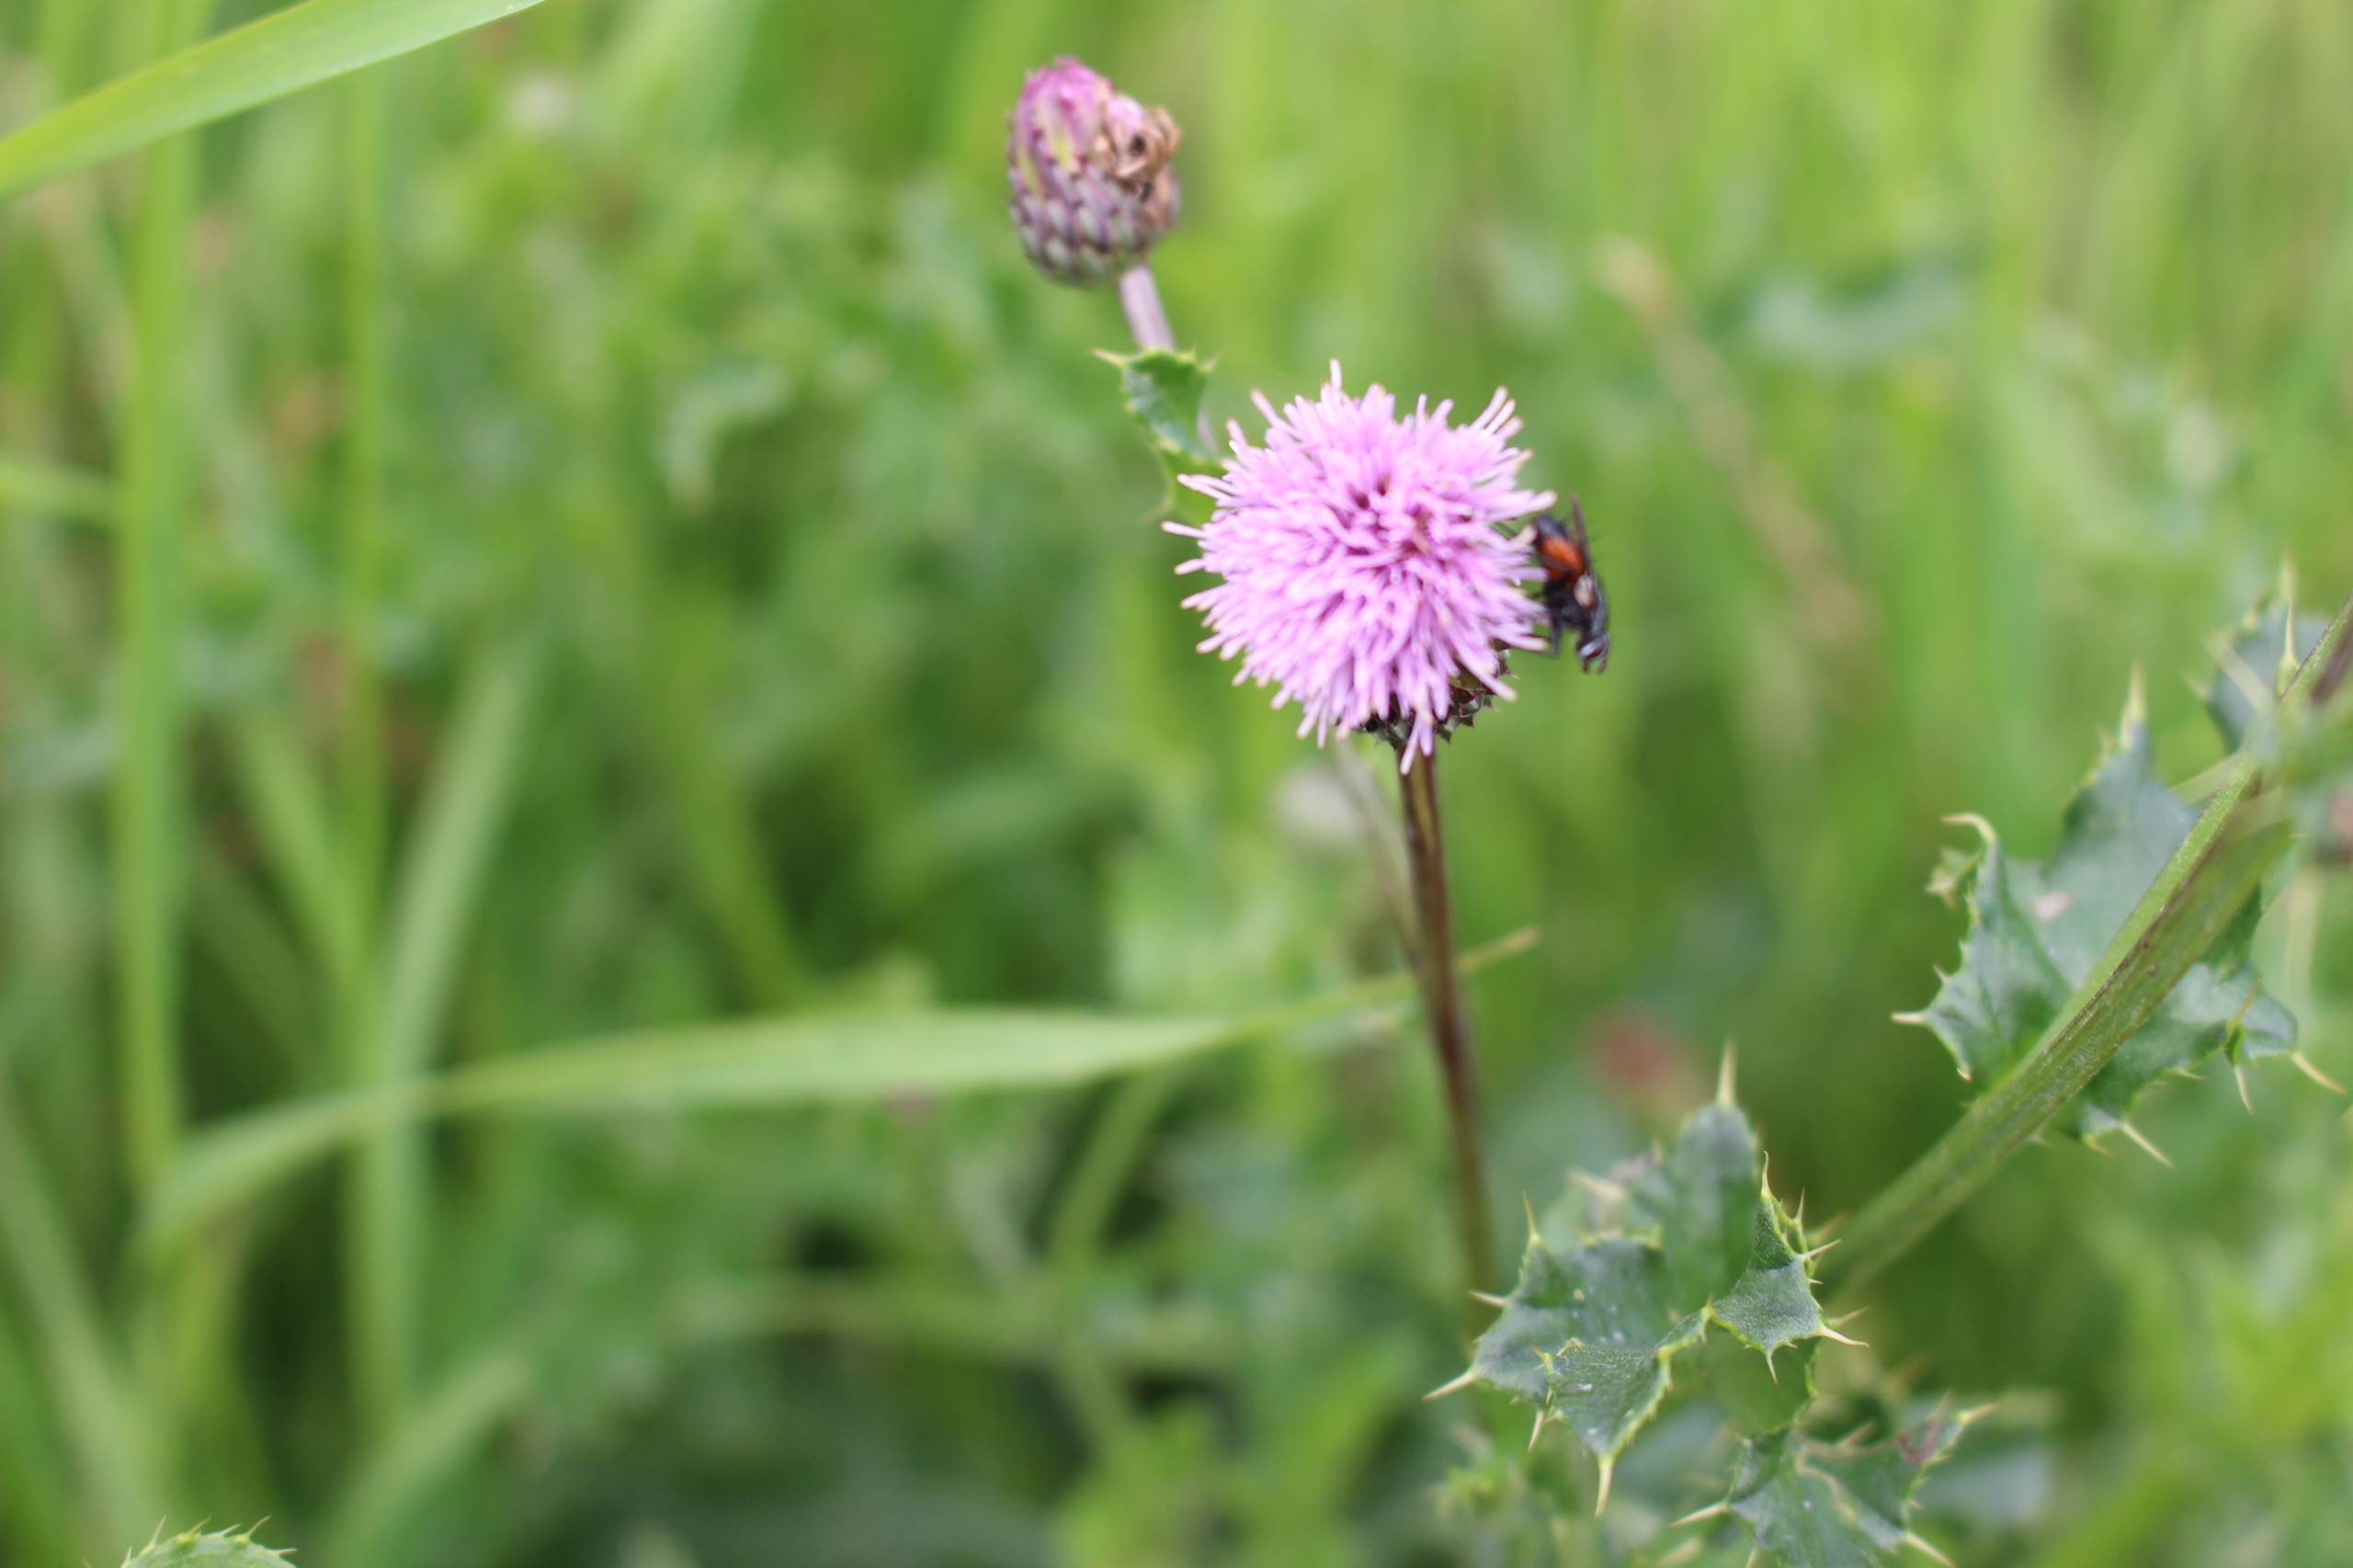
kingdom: Plantae
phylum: Tracheophyta
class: Magnoliopsida
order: Asterales
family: Asteraceae
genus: Cirsium
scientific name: Cirsium arvense
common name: Ager-tidsel
